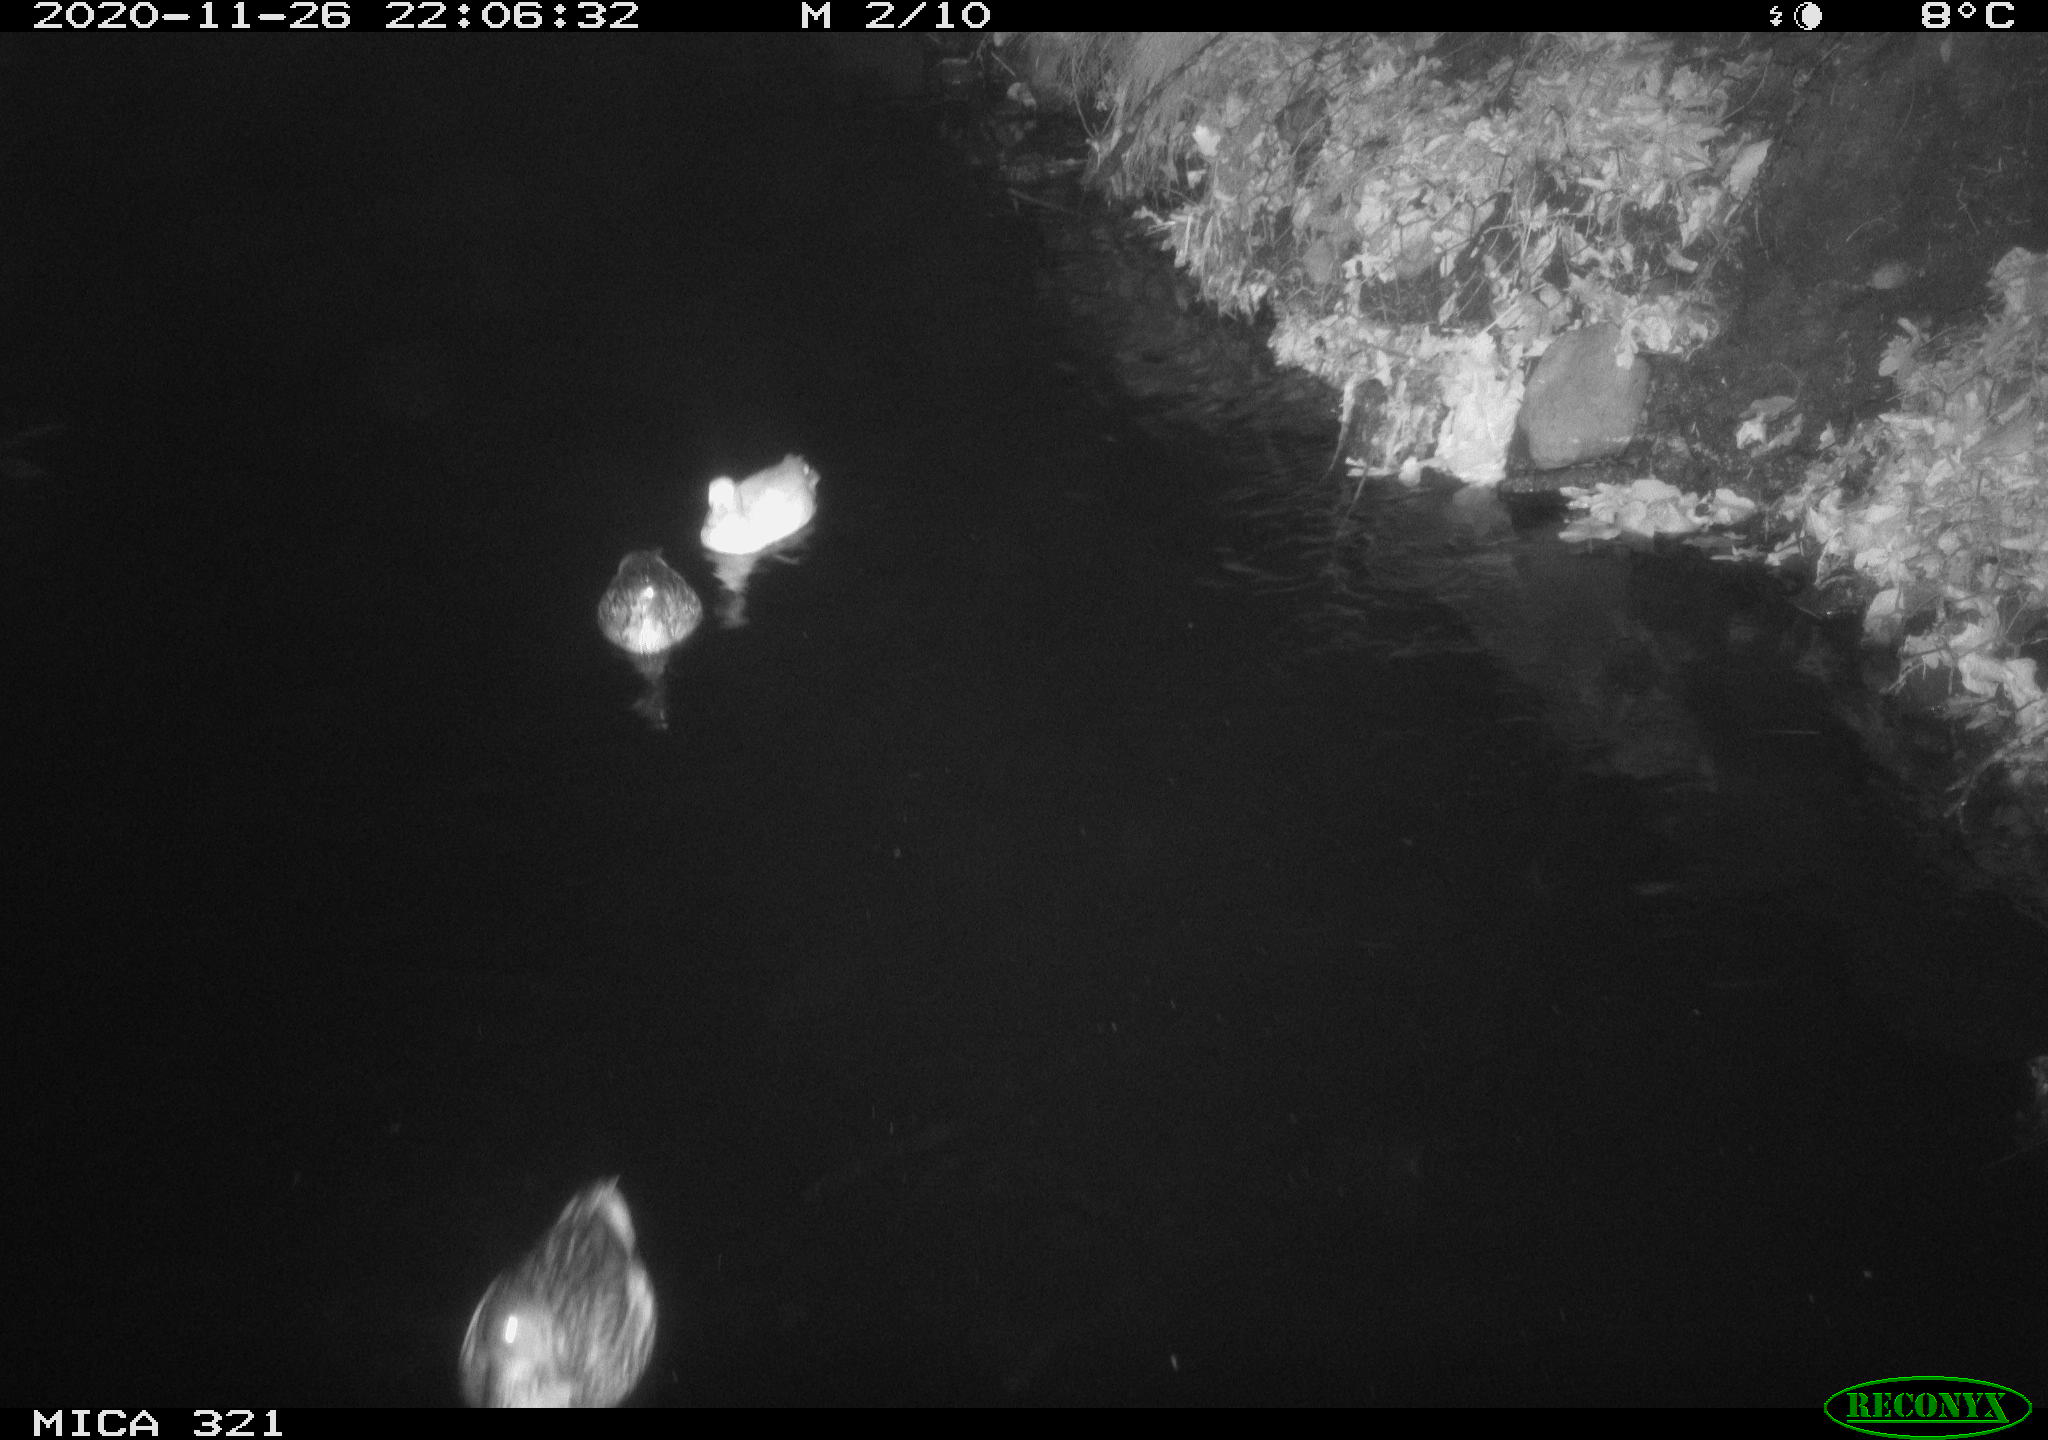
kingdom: Animalia
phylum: Chordata
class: Aves
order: Anseriformes
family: Anatidae
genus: Anas
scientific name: Anas platyrhynchos
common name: Mallard
